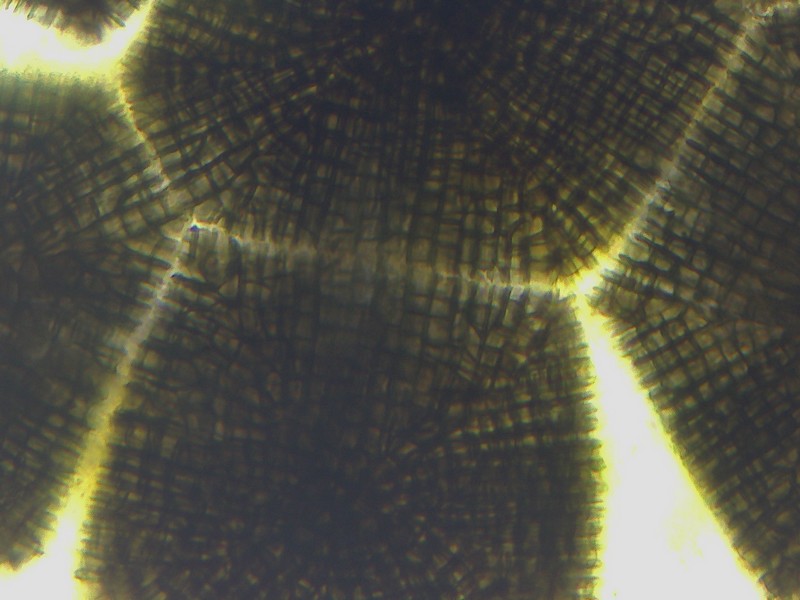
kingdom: Fungi
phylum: Ascomycota
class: Sordariomycetes
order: Cephalothecales
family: Cephalothecaceae
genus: Cephalotheca
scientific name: Cephalotheca sulfurea
